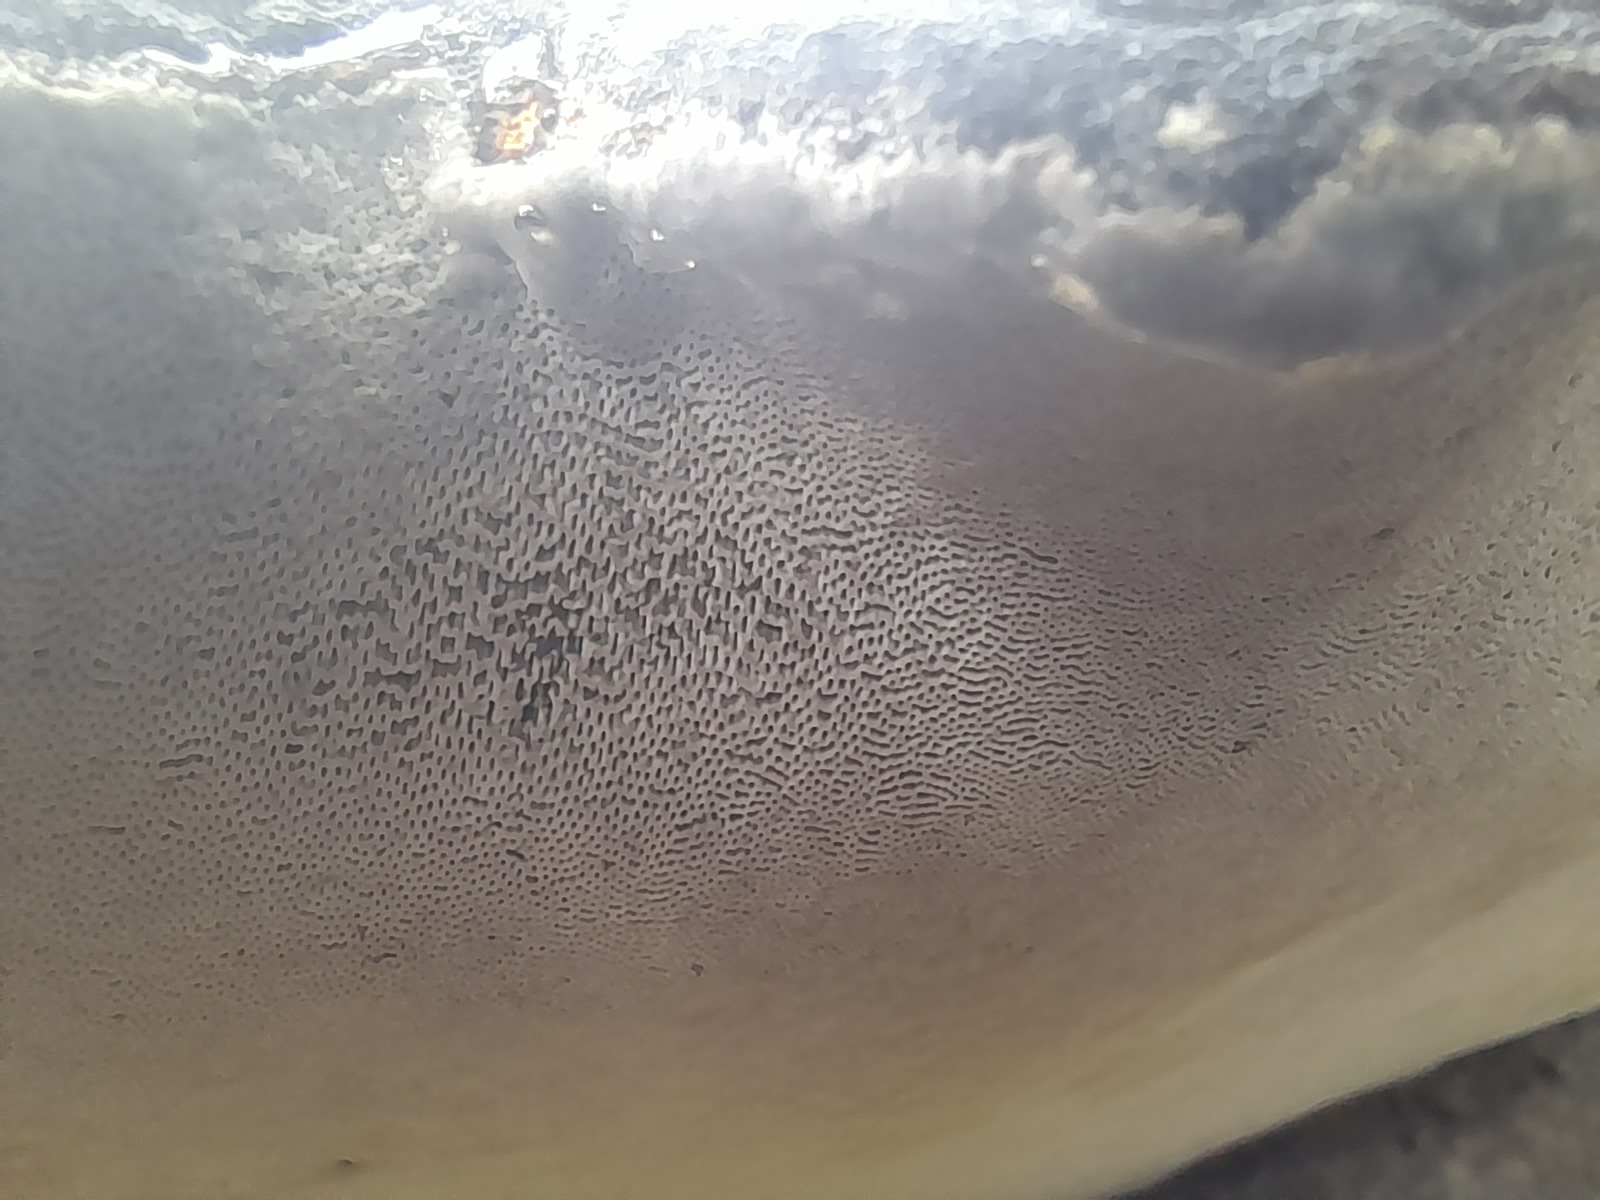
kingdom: Fungi
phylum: Basidiomycota
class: Agaricomycetes
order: Polyporales
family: Polyporaceae
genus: Fomes
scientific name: Fomes fomentarius
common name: tøndersvamp
